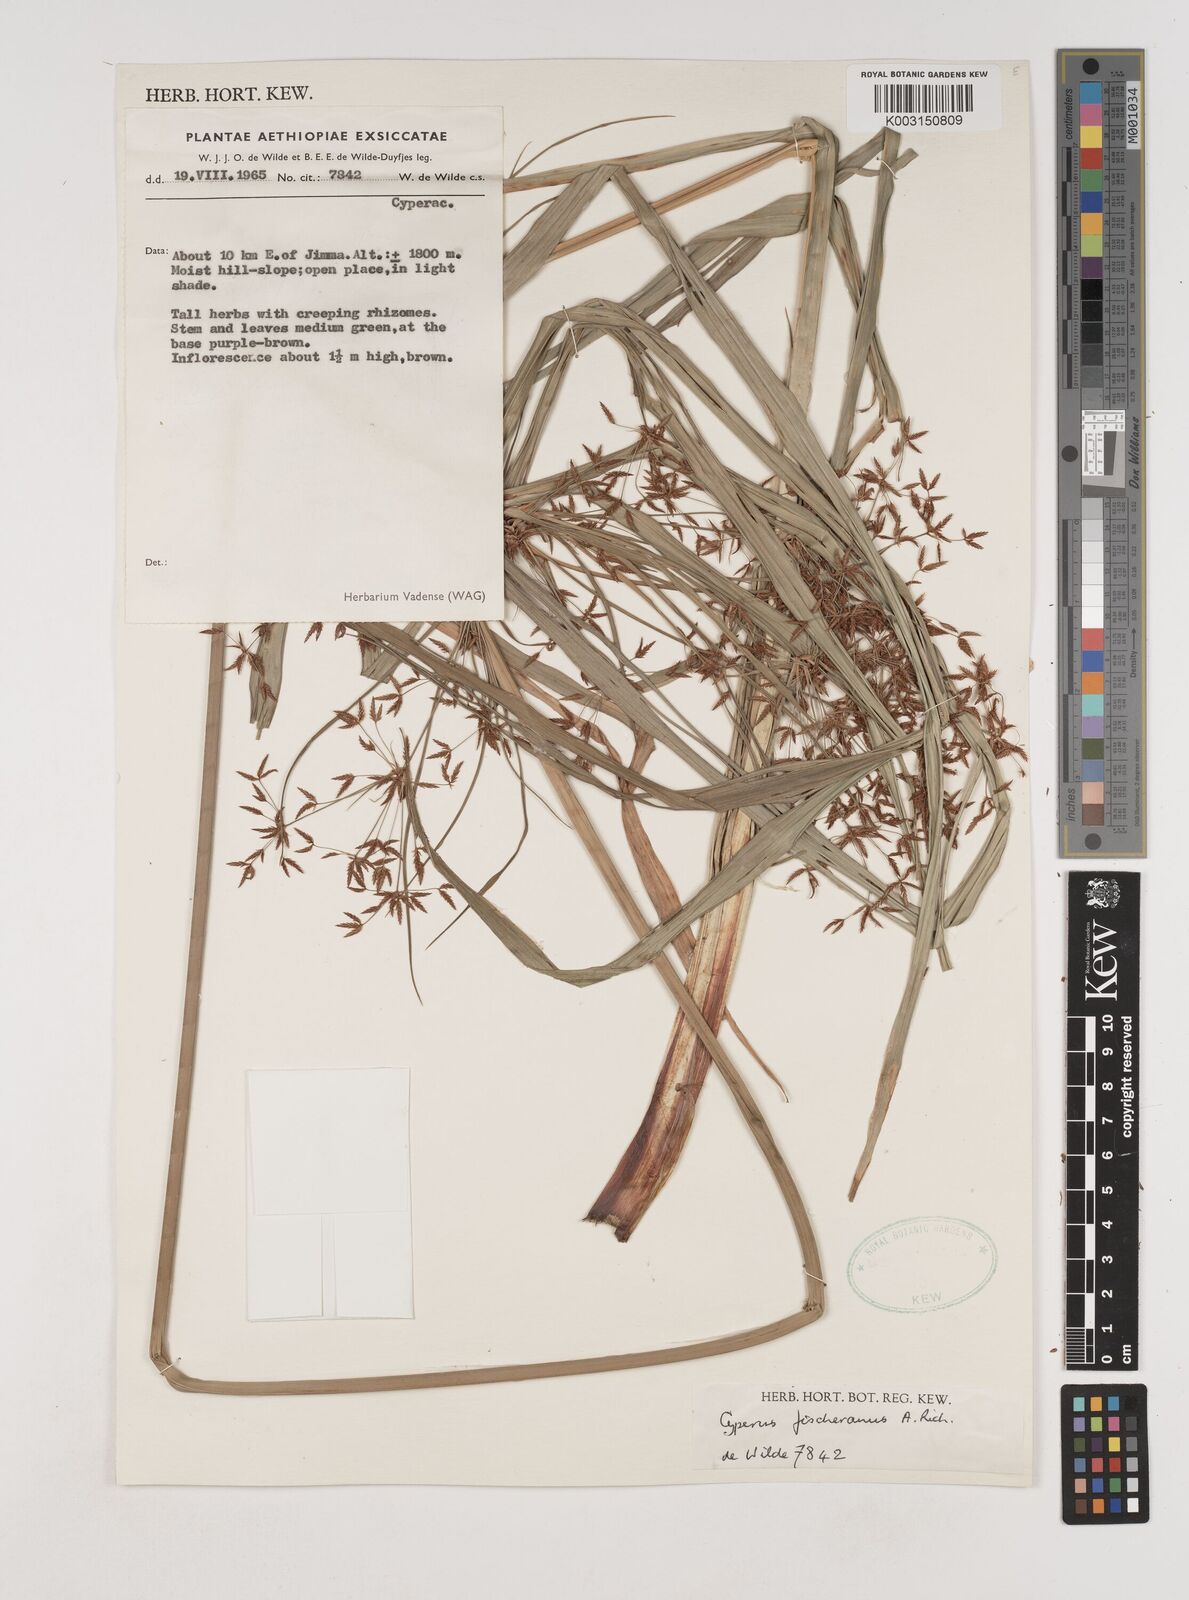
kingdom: Plantae
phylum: Tracheophyta
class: Liliopsida
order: Poales
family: Cyperaceae
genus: Cyperus
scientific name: Cyperus fischerianus
